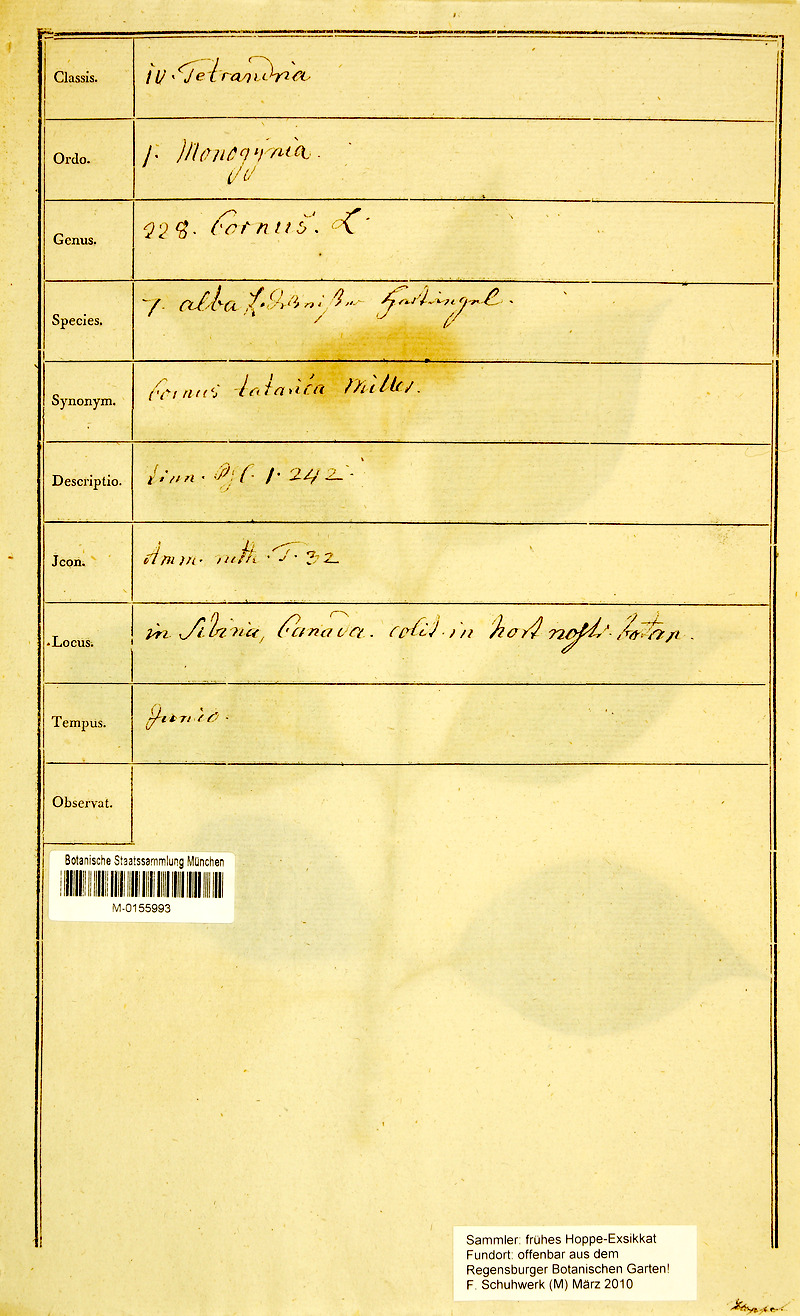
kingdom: Plantae
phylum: Tracheophyta
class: Magnoliopsida
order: Cornales
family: Cornaceae
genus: Cornus
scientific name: Cornus alba
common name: White dogwood
